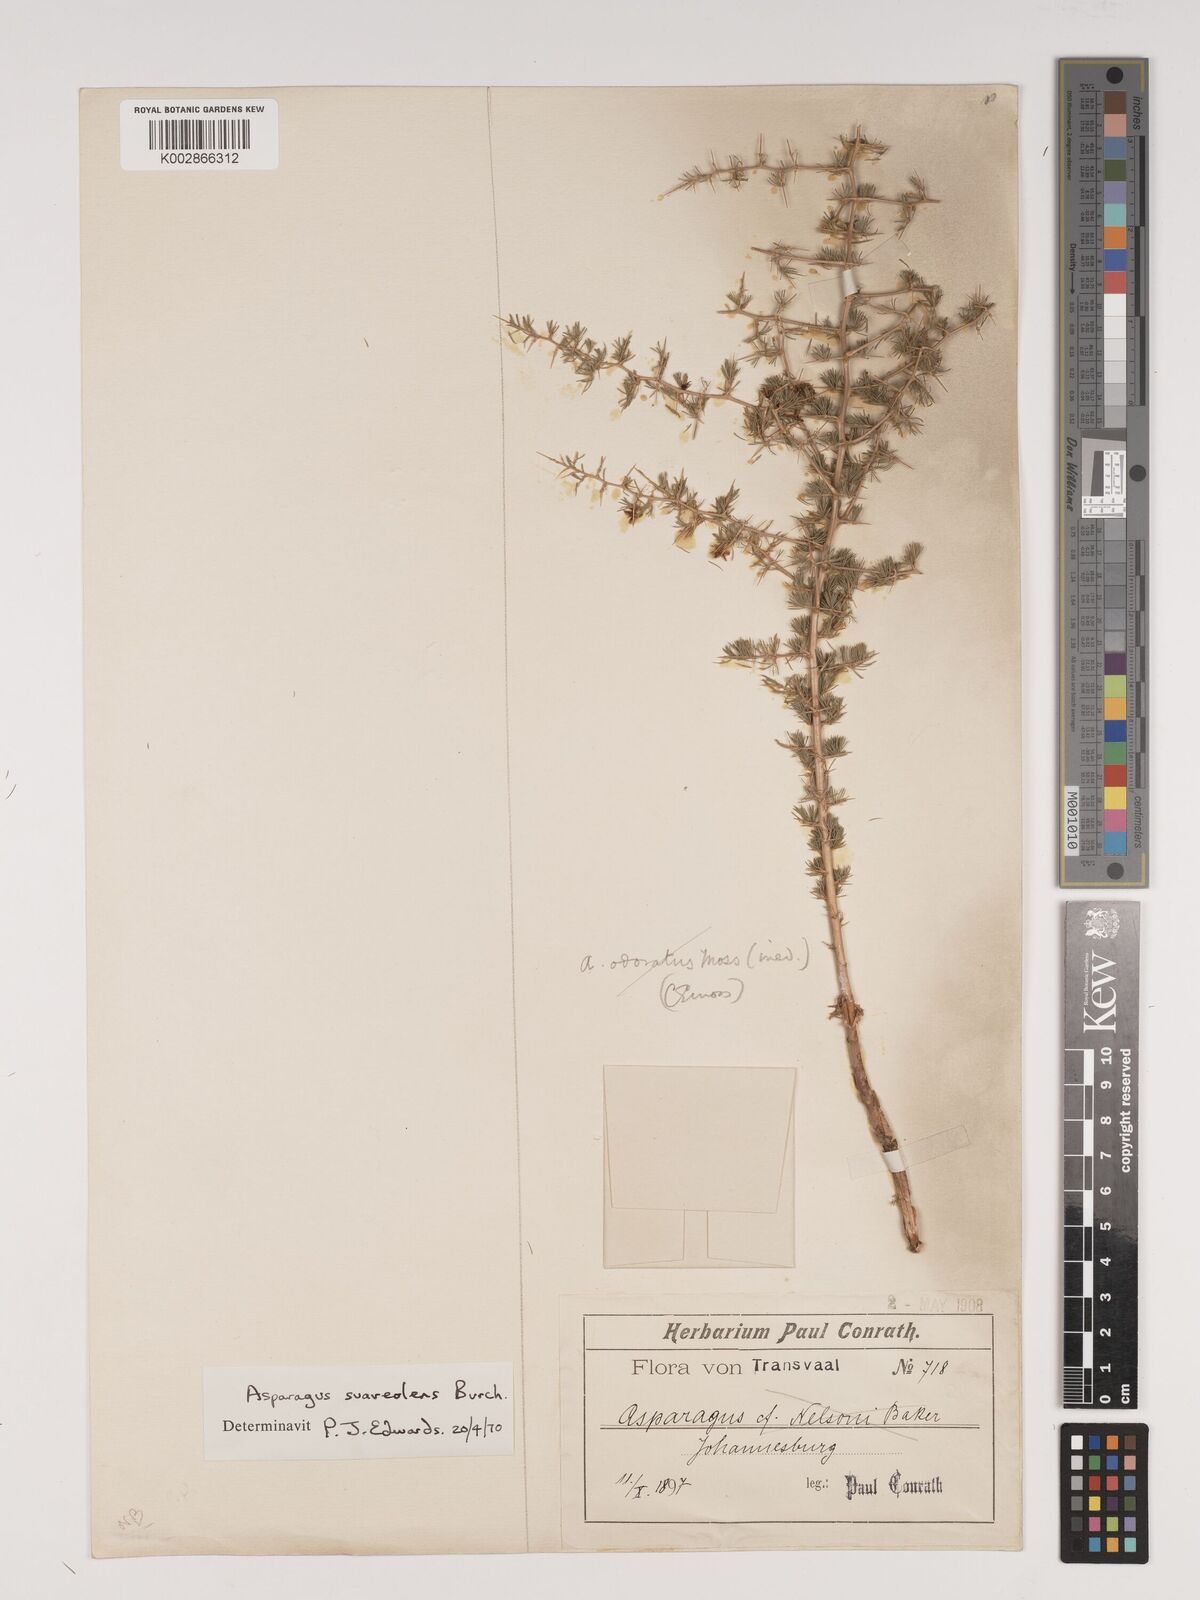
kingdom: Plantae
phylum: Tracheophyta
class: Liliopsida
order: Asparagales
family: Asparagaceae
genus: Asparagus
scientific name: Asparagus suaveolens
